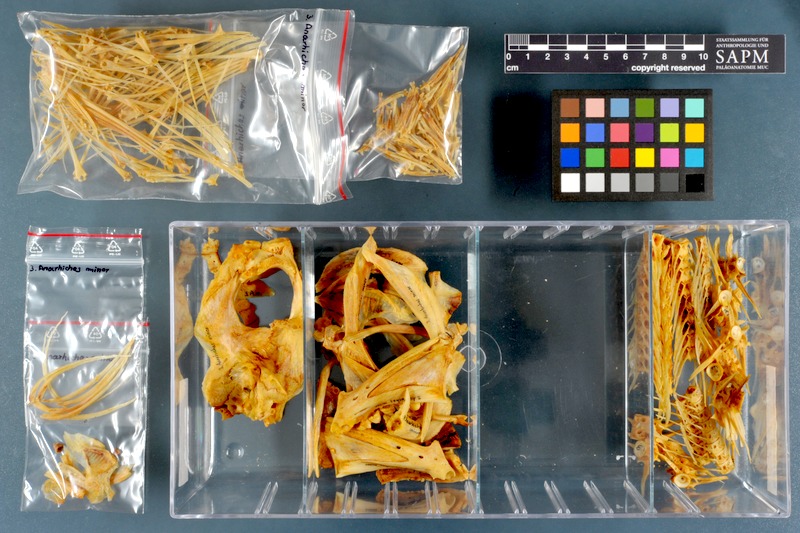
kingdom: Animalia
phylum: Chordata
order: Perciformes
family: Anarhichadidae
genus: Anarhichas
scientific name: Anarhichas minor
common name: Spotted catfish
